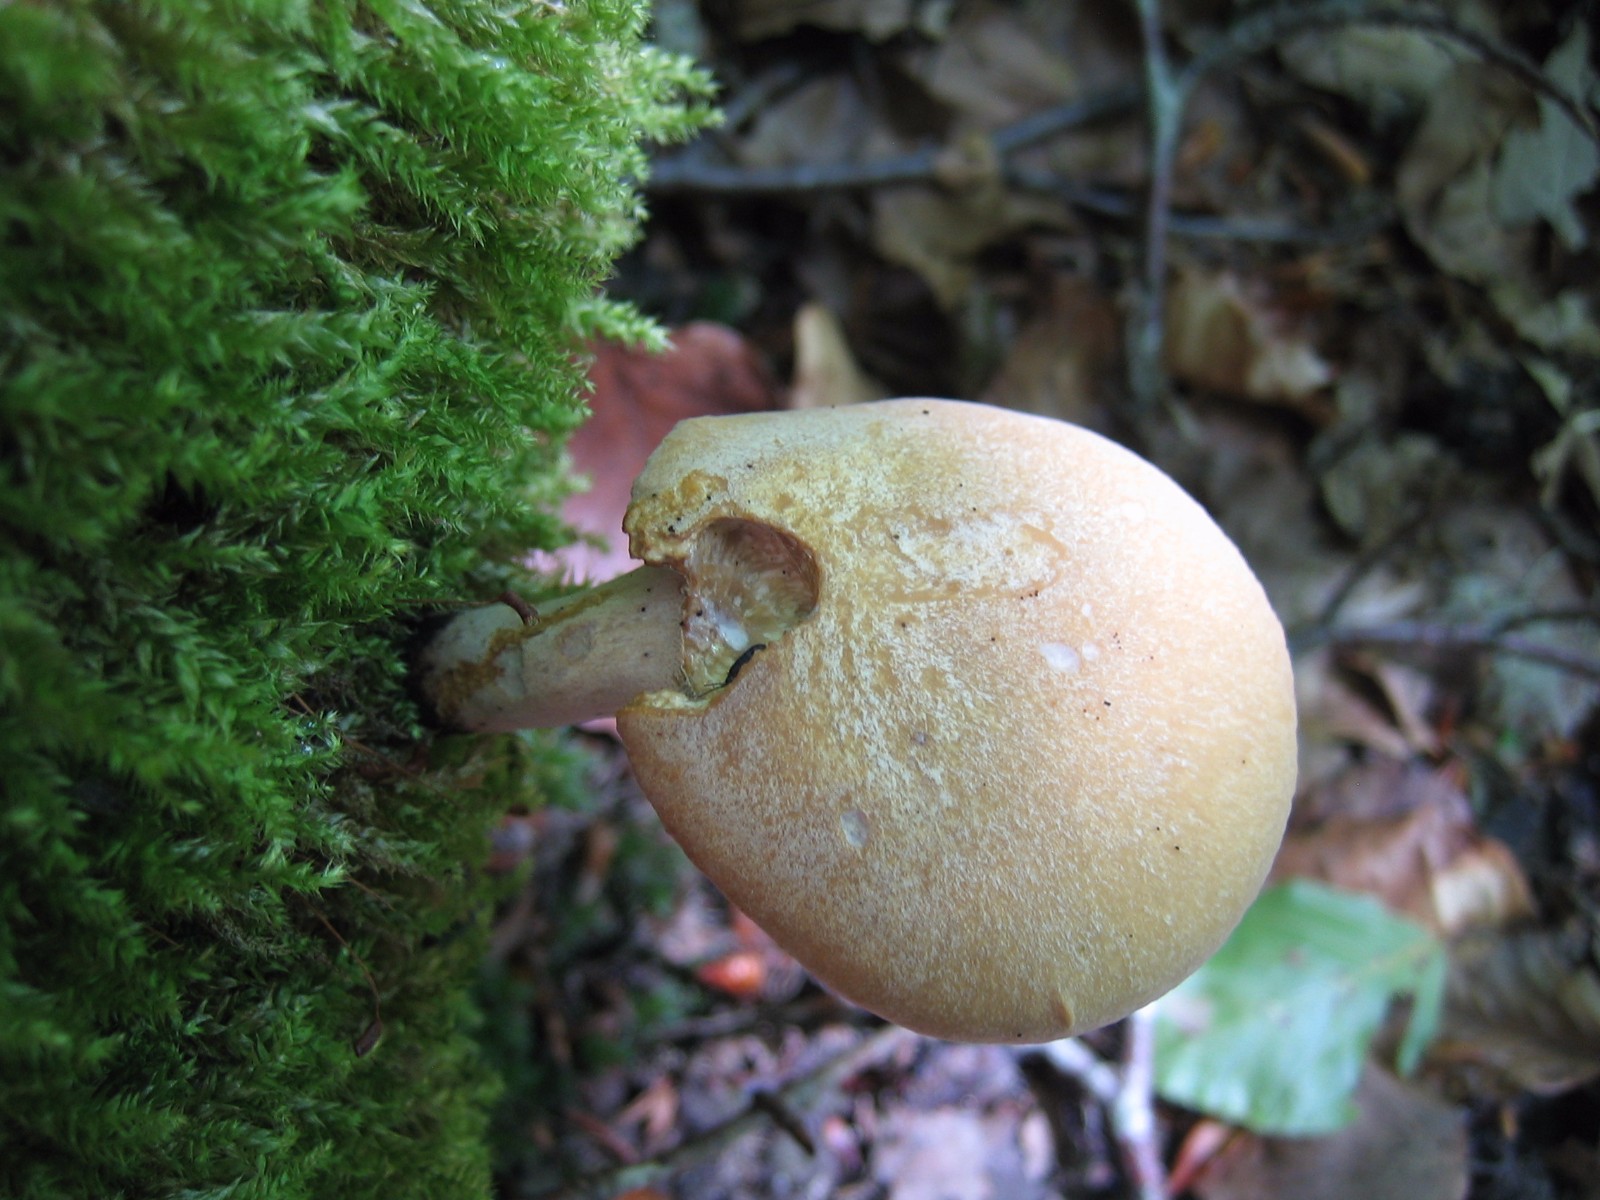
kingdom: Fungi
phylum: Basidiomycota
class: Agaricomycetes
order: Polyporales
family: Polyporaceae
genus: Cerioporus
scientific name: Cerioporus varius
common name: foranderlig stilkporesvamp
